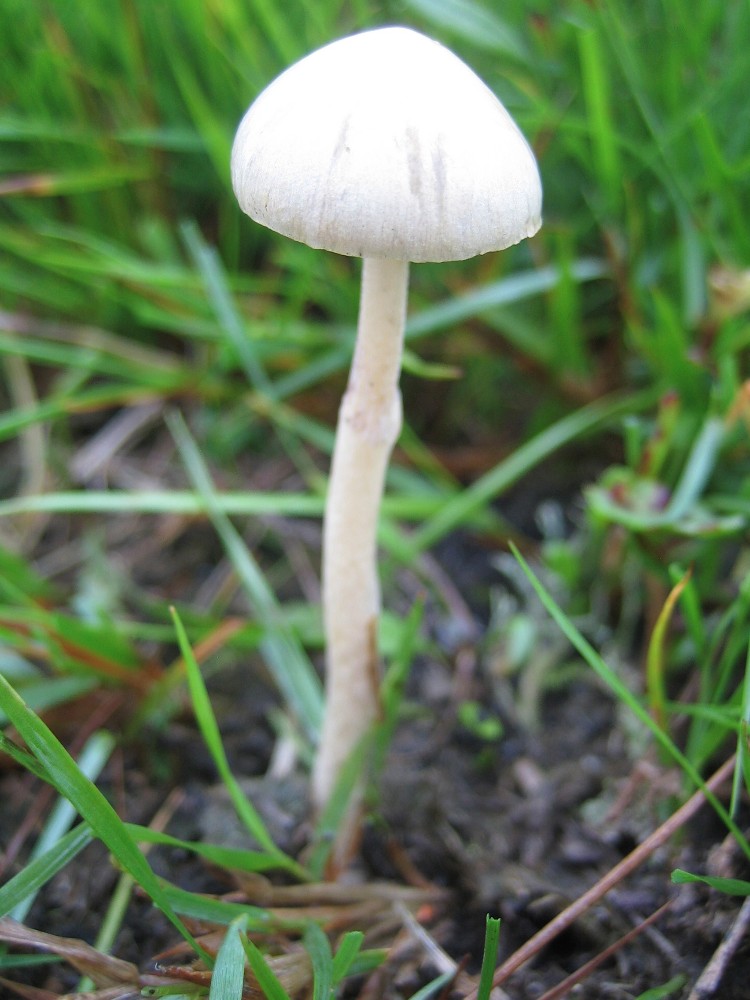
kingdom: Fungi
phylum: Basidiomycota
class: Agaricomycetes
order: Agaricales
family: Strophariaceae
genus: Protostropharia
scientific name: Protostropharia
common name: bredblad
